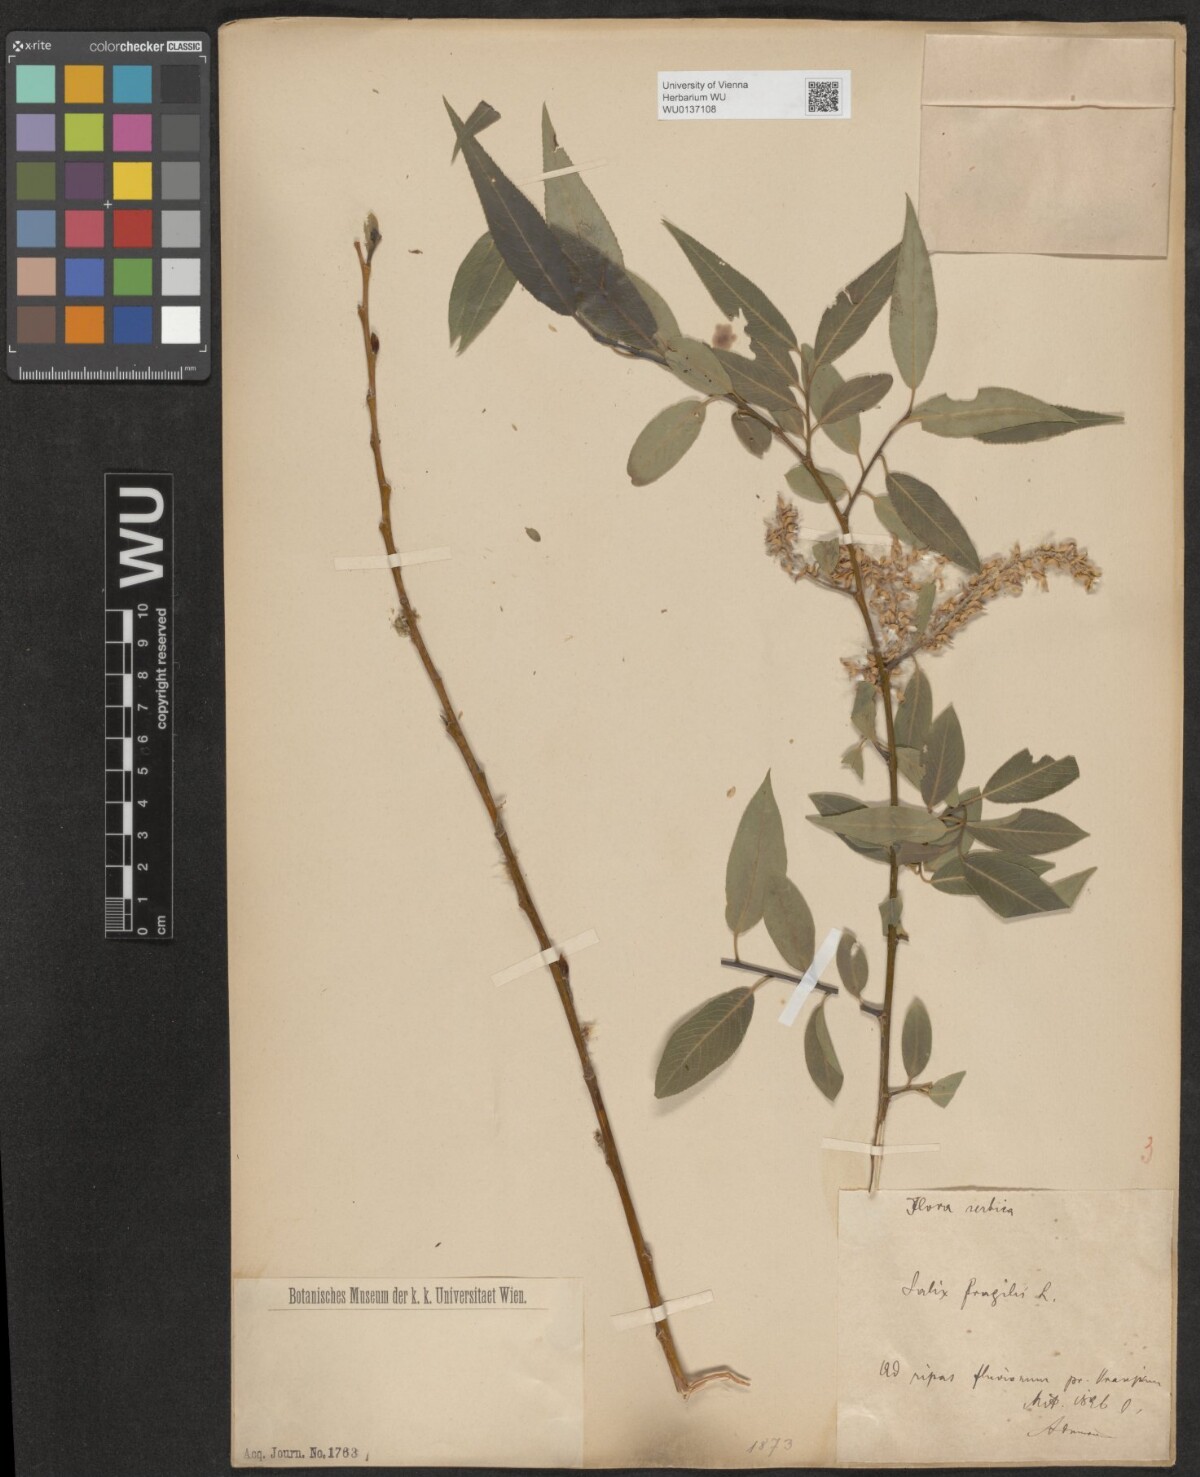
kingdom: Plantae
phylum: Tracheophyta
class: Magnoliopsida
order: Malpighiales
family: Salicaceae
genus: Salix
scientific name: Salix fragilis
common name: Crack willow
